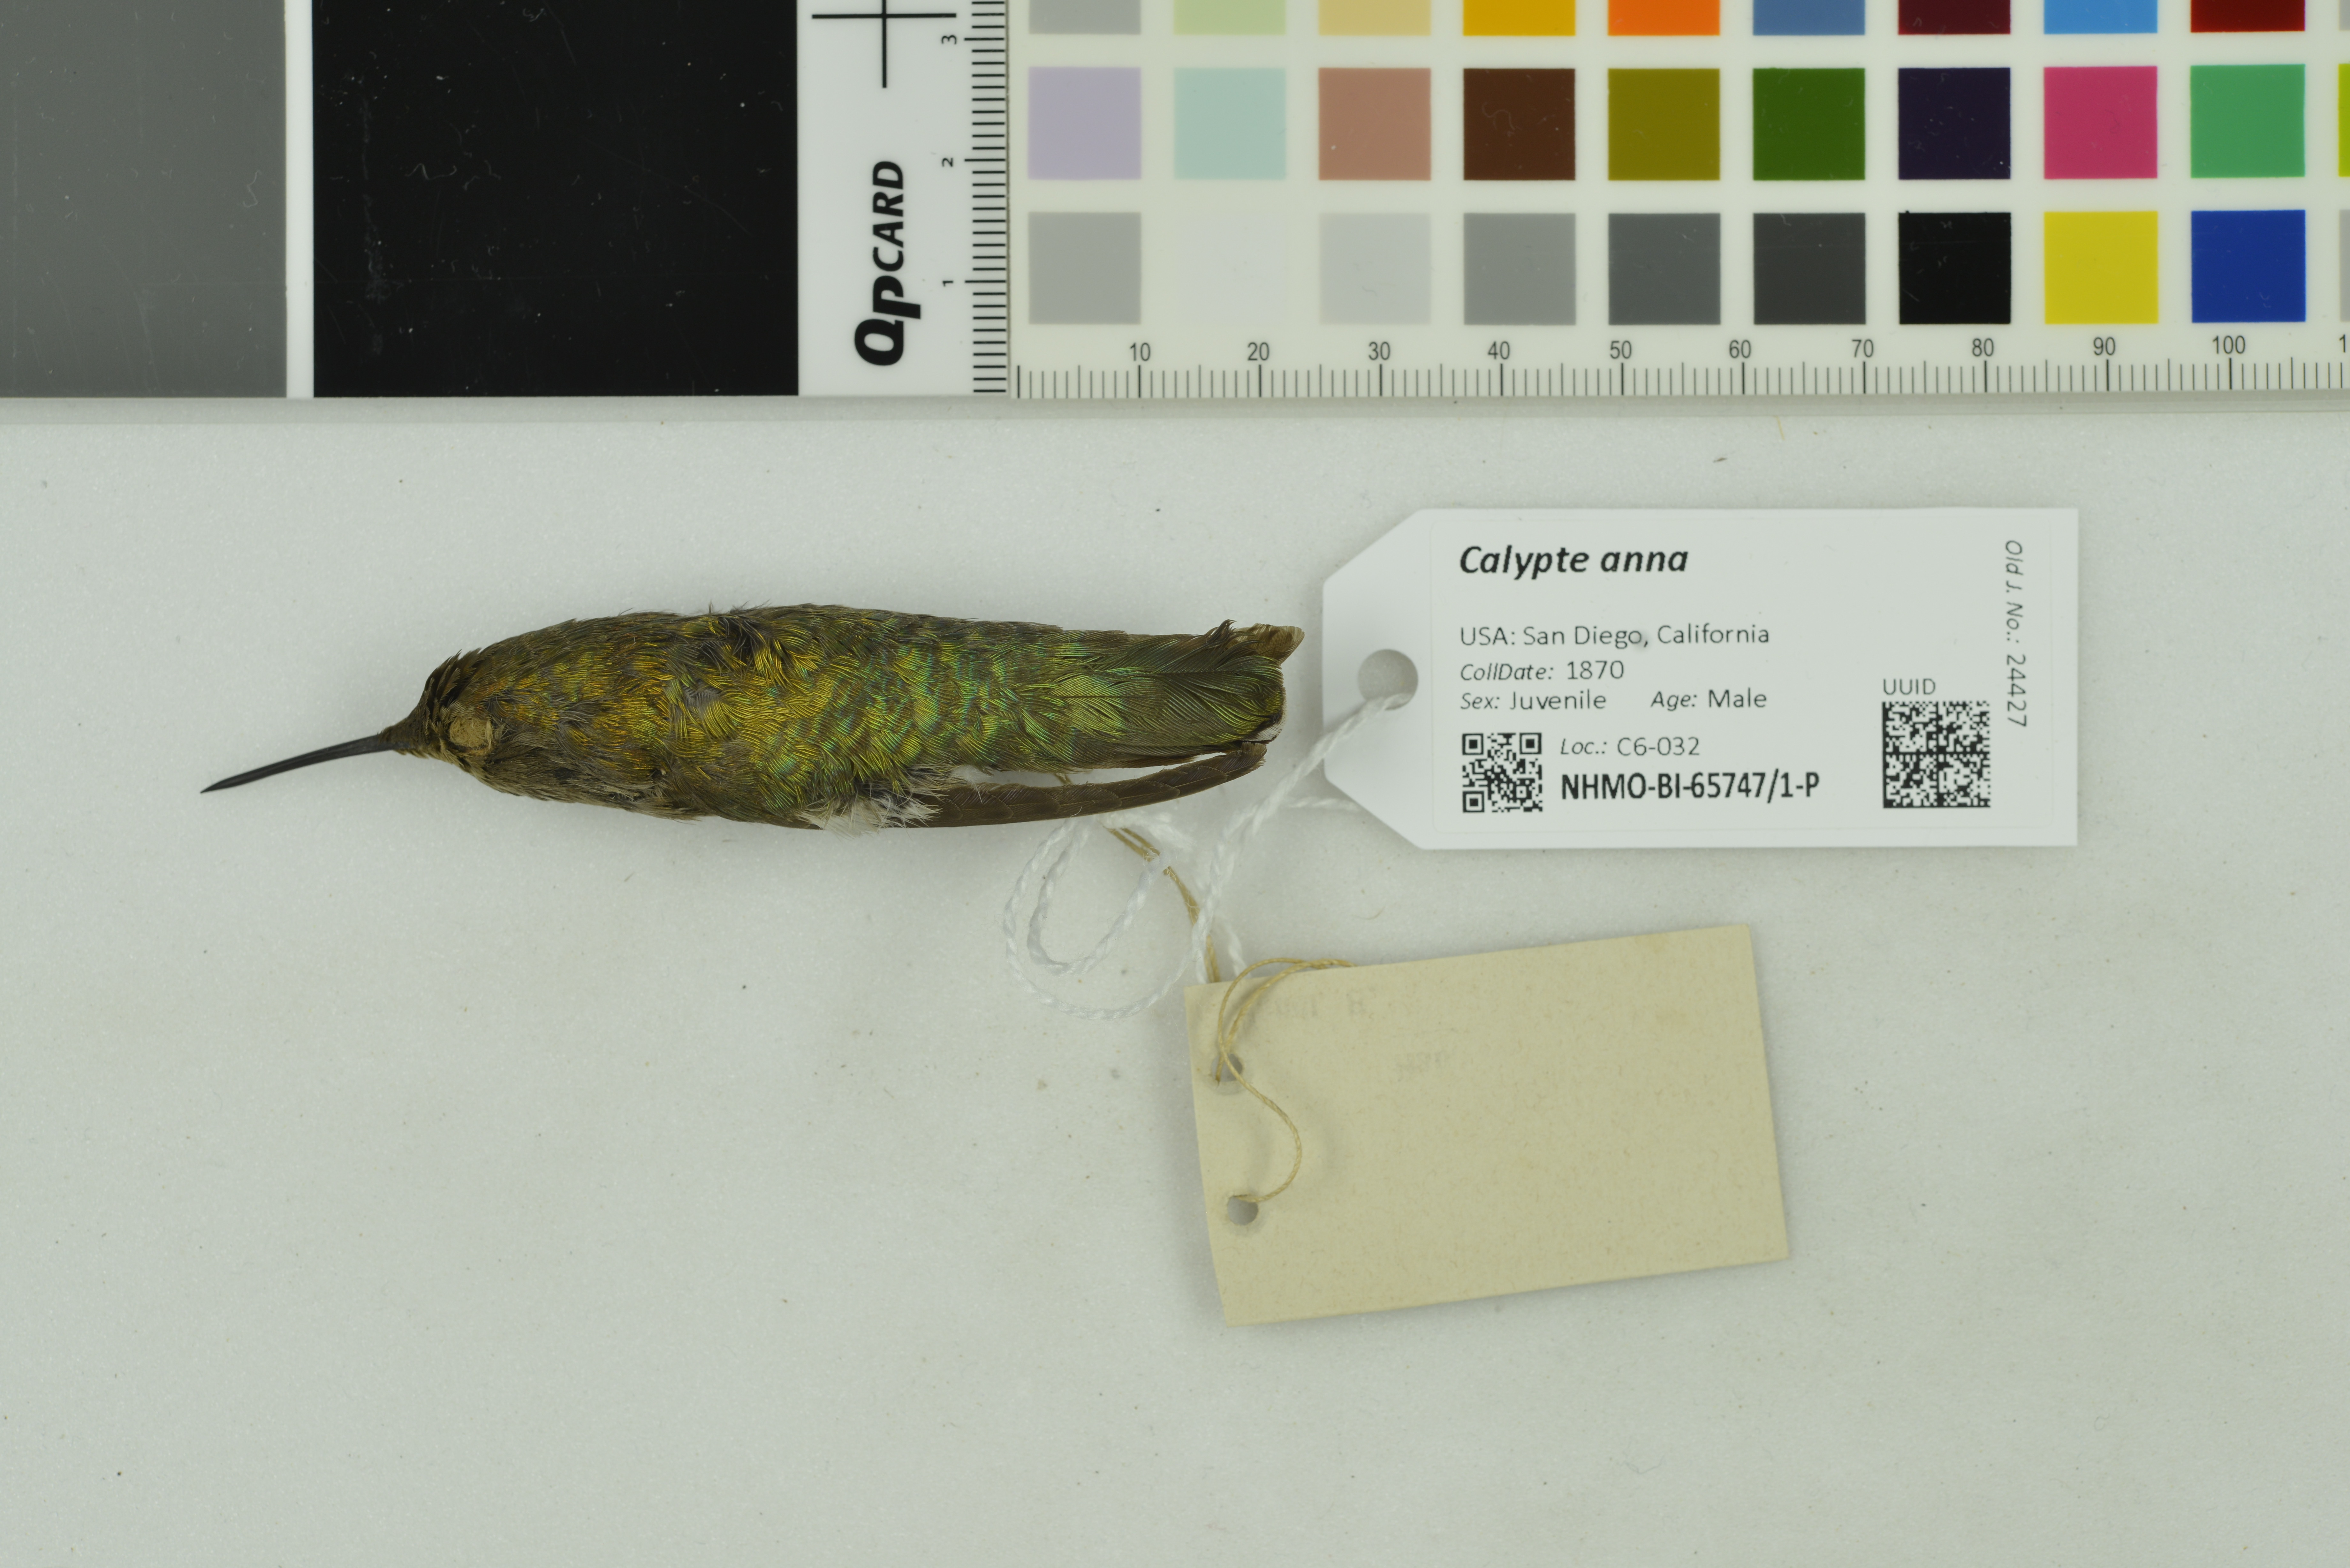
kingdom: Animalia
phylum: Chordata
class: Aves
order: Apodiformes
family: Trochilidae
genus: Calypte
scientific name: Calypte anna
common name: Anna's hummingbird
